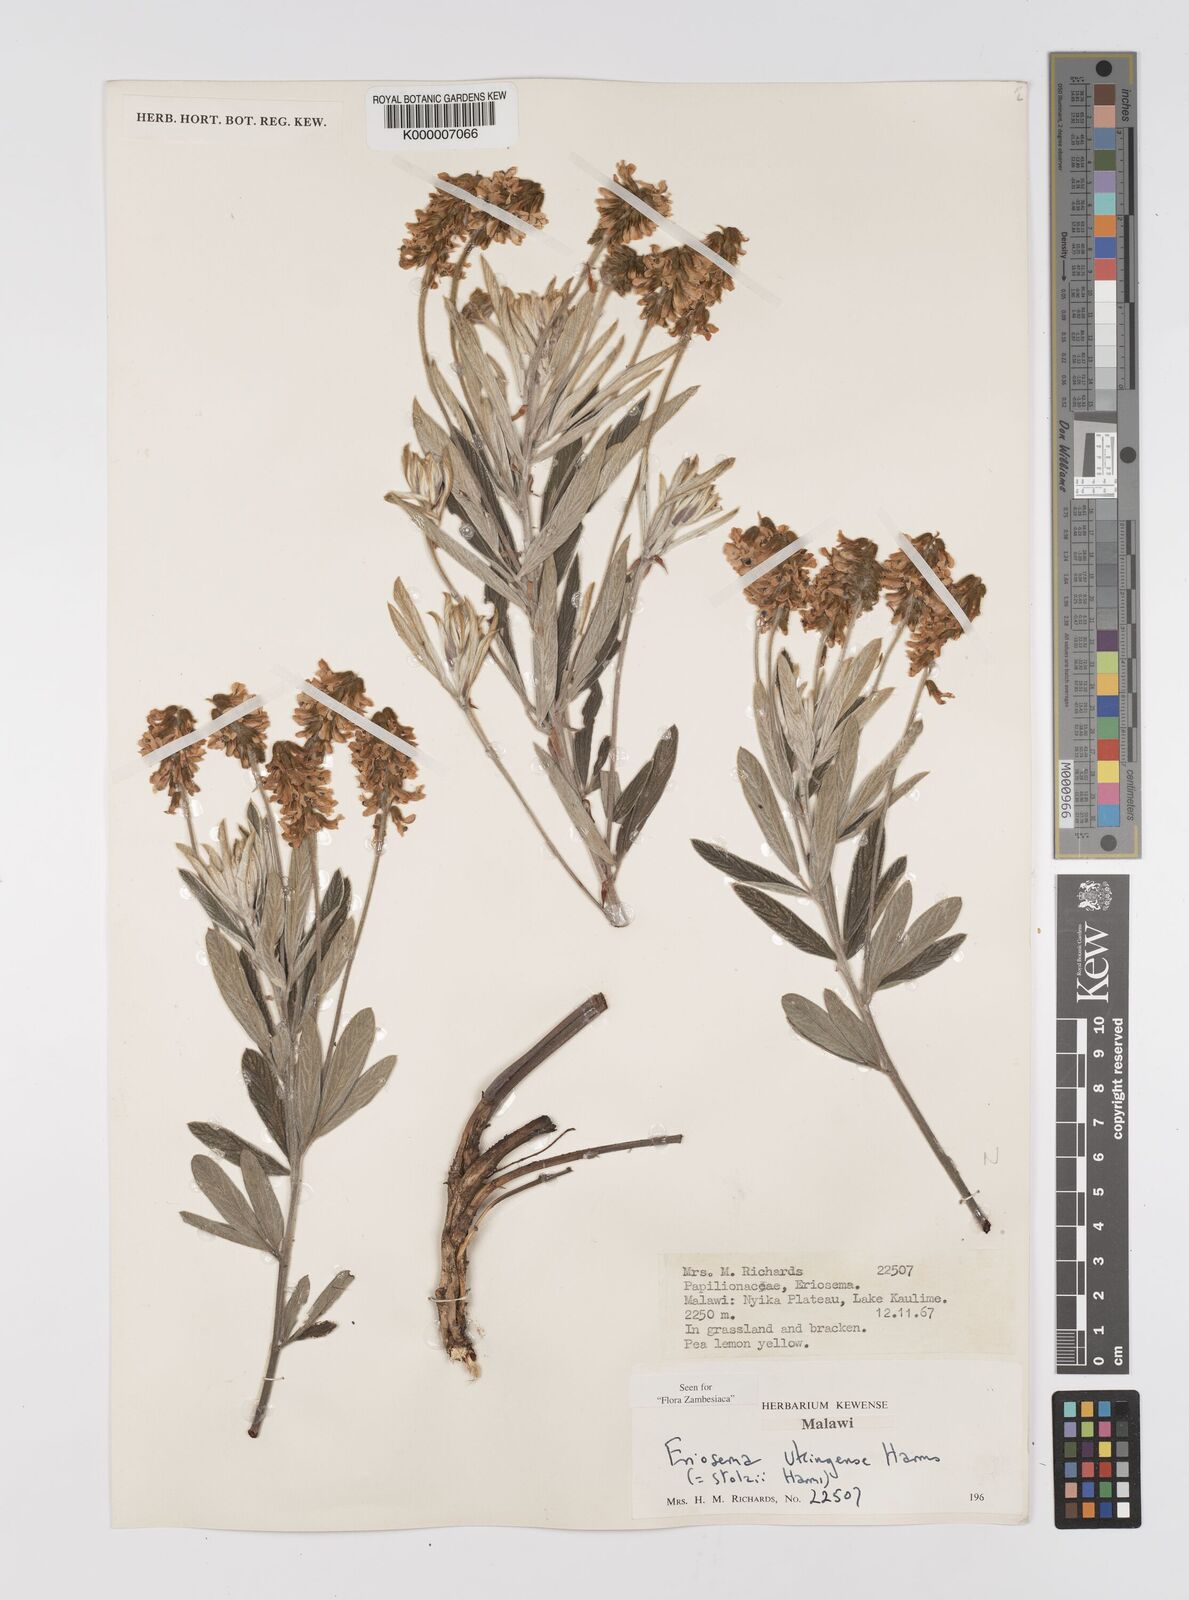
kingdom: Plantae
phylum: Tracheophyta
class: Magnoliopsida
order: Fabales
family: Fabaceae
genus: Eriosema
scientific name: Eriosema ukingense
